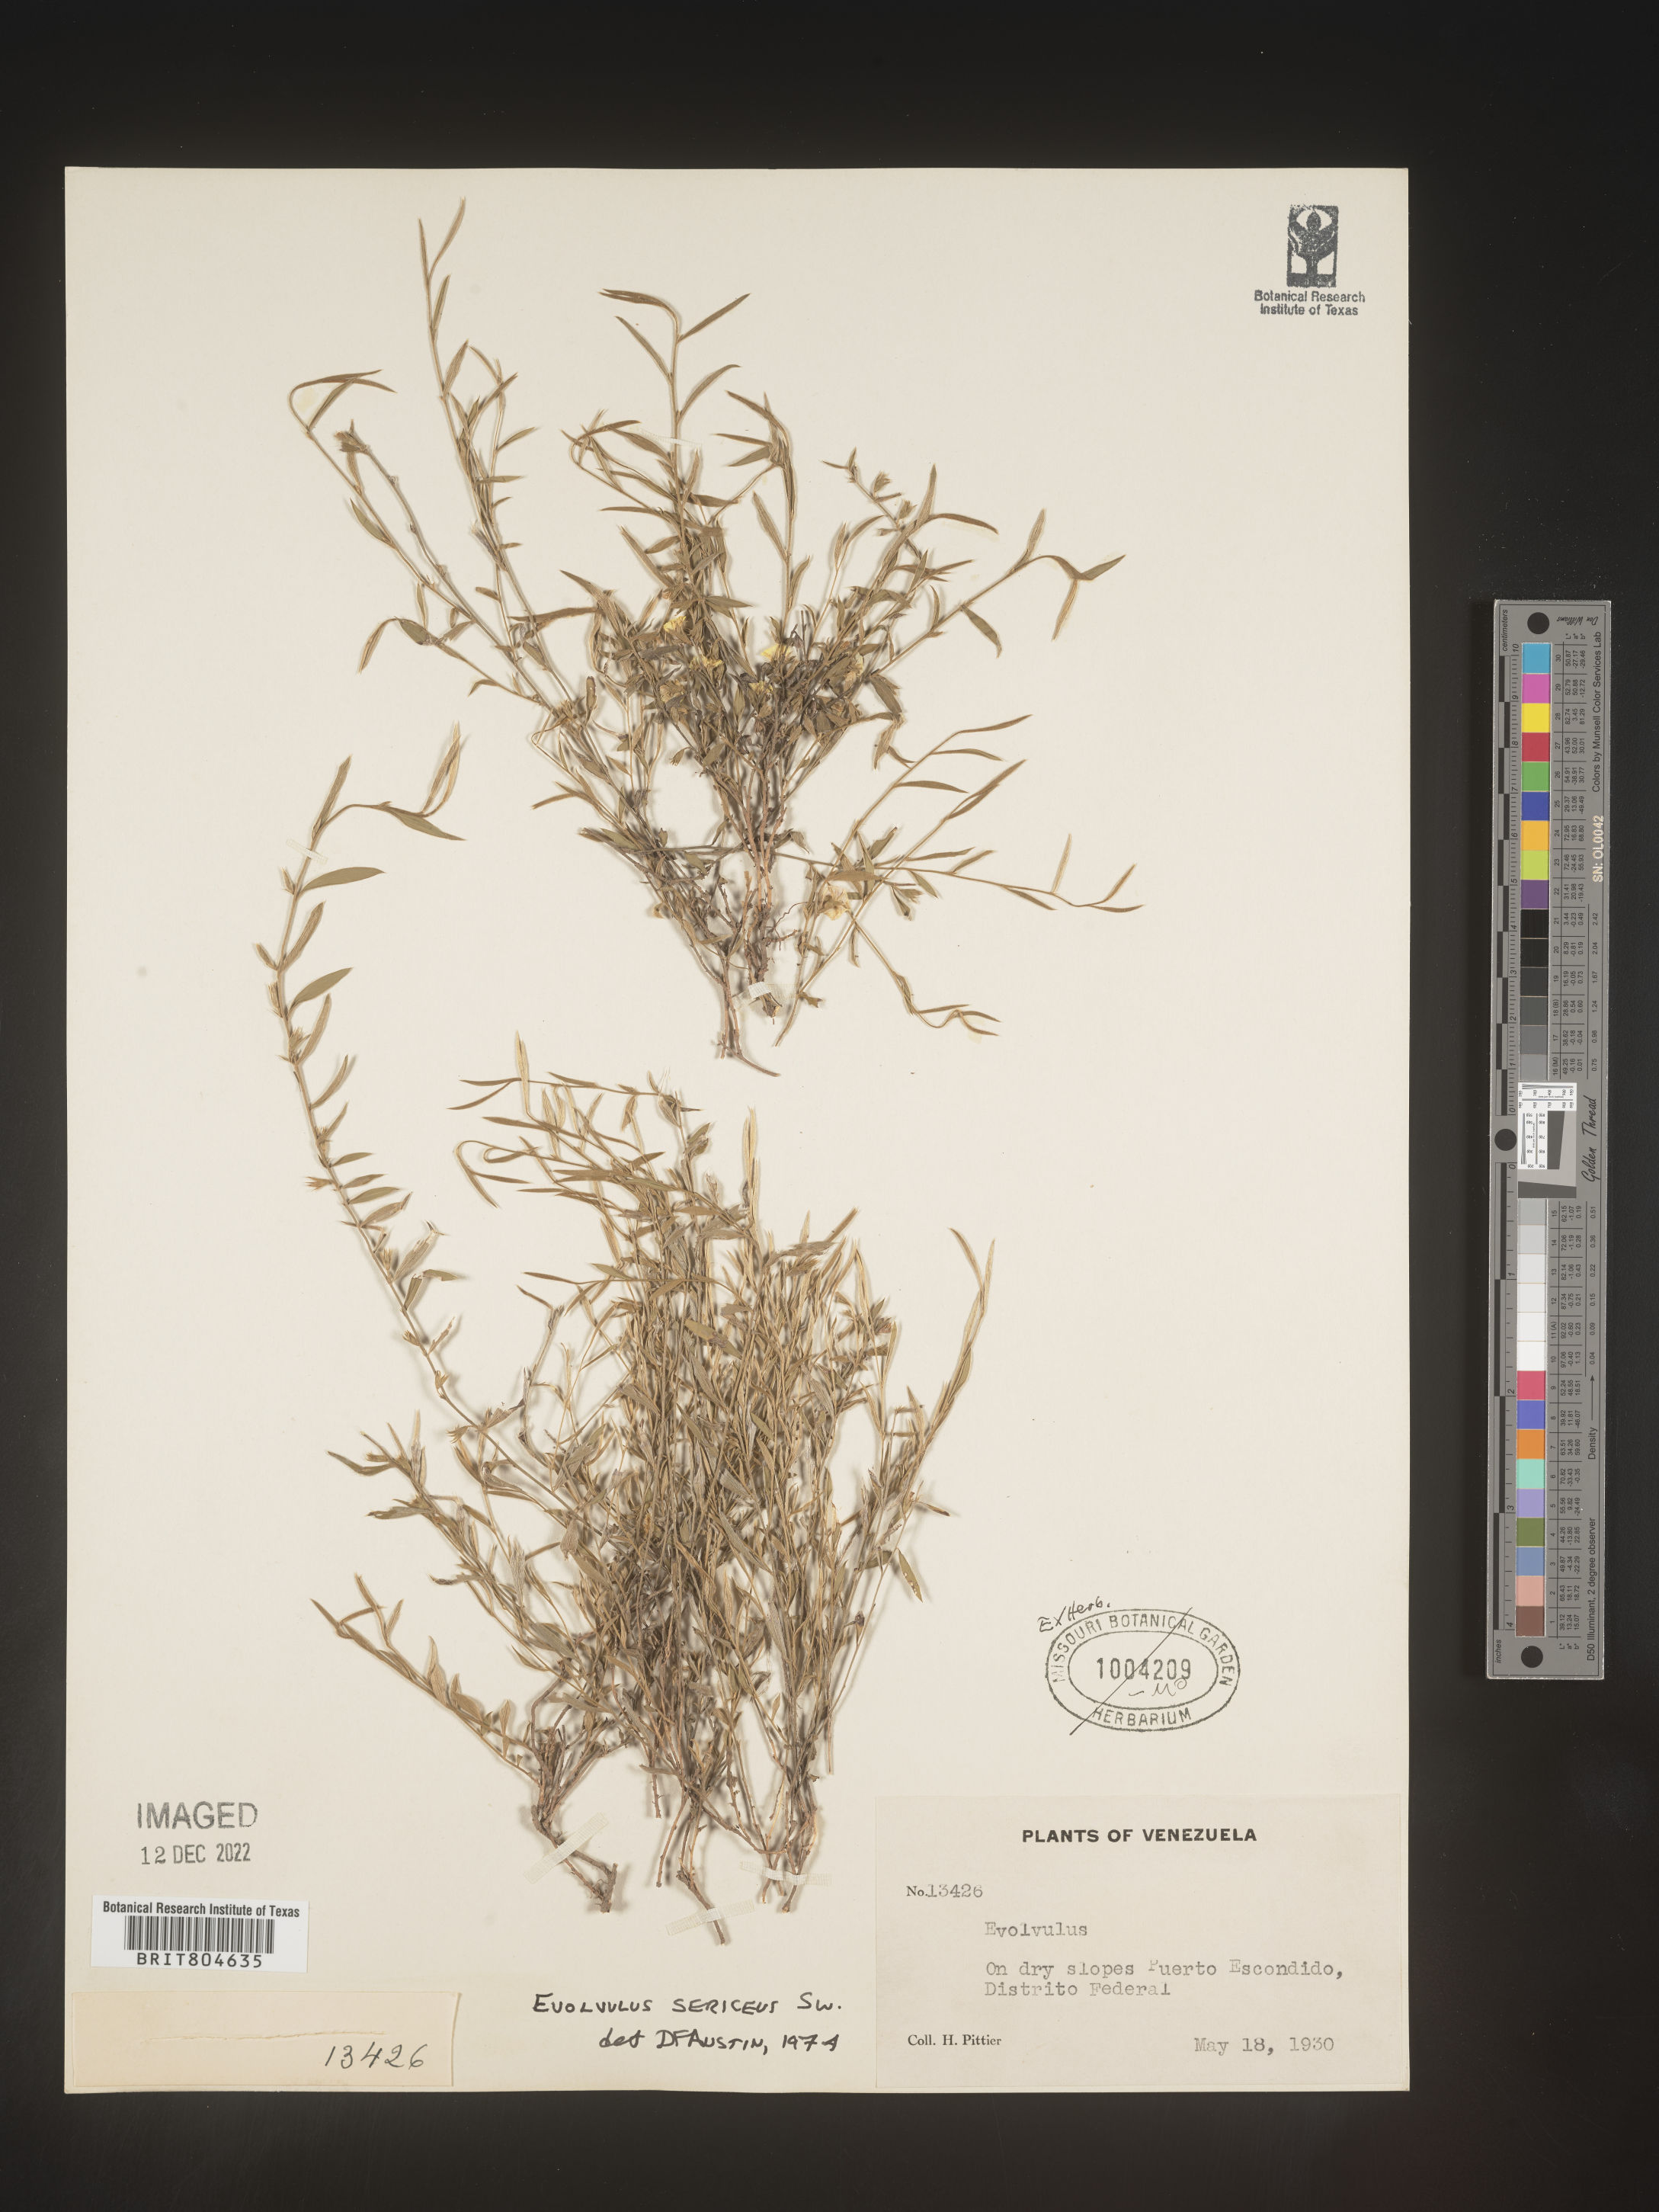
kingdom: Plantae
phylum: Tracheophyta
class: Magnoliopsida
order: Solanales
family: Convolvulaceae
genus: Evolvulus
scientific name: Evolvulus
